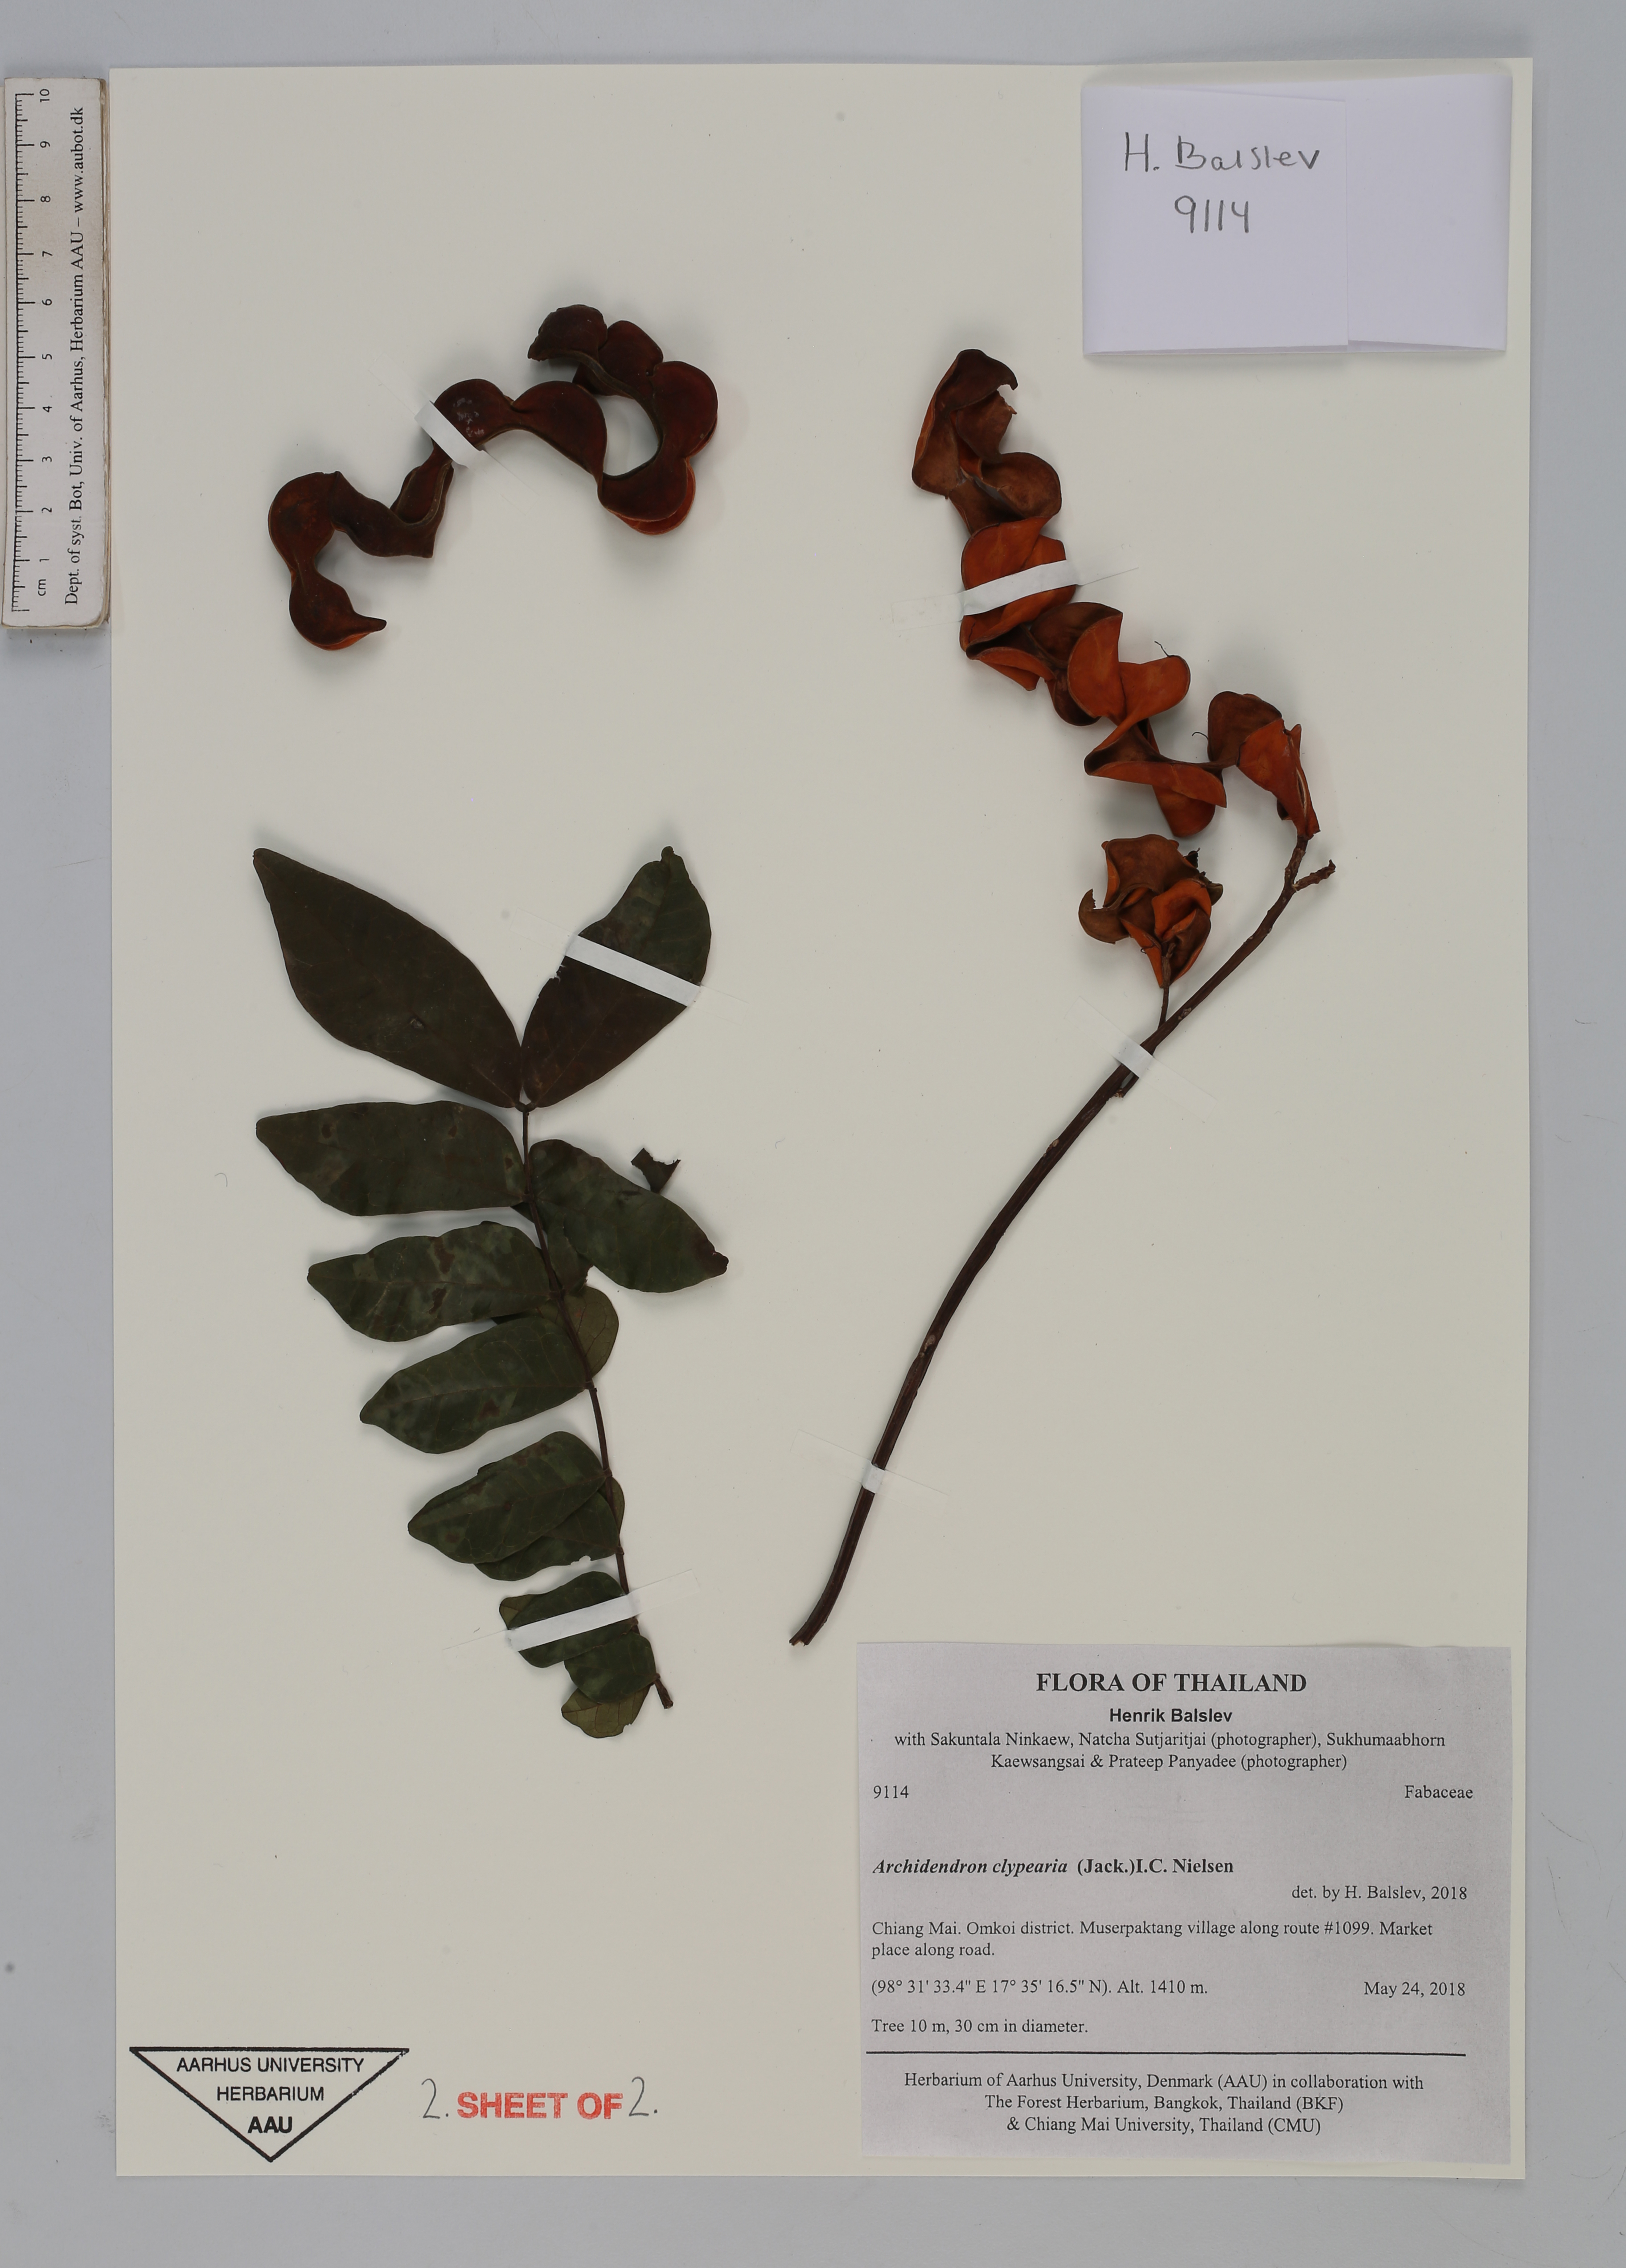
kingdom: Plantae
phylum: Tracheophyta
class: Magnoliopsida
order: Fabales
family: Fabaceae
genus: Archidendron
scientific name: Archidendron clypearia
